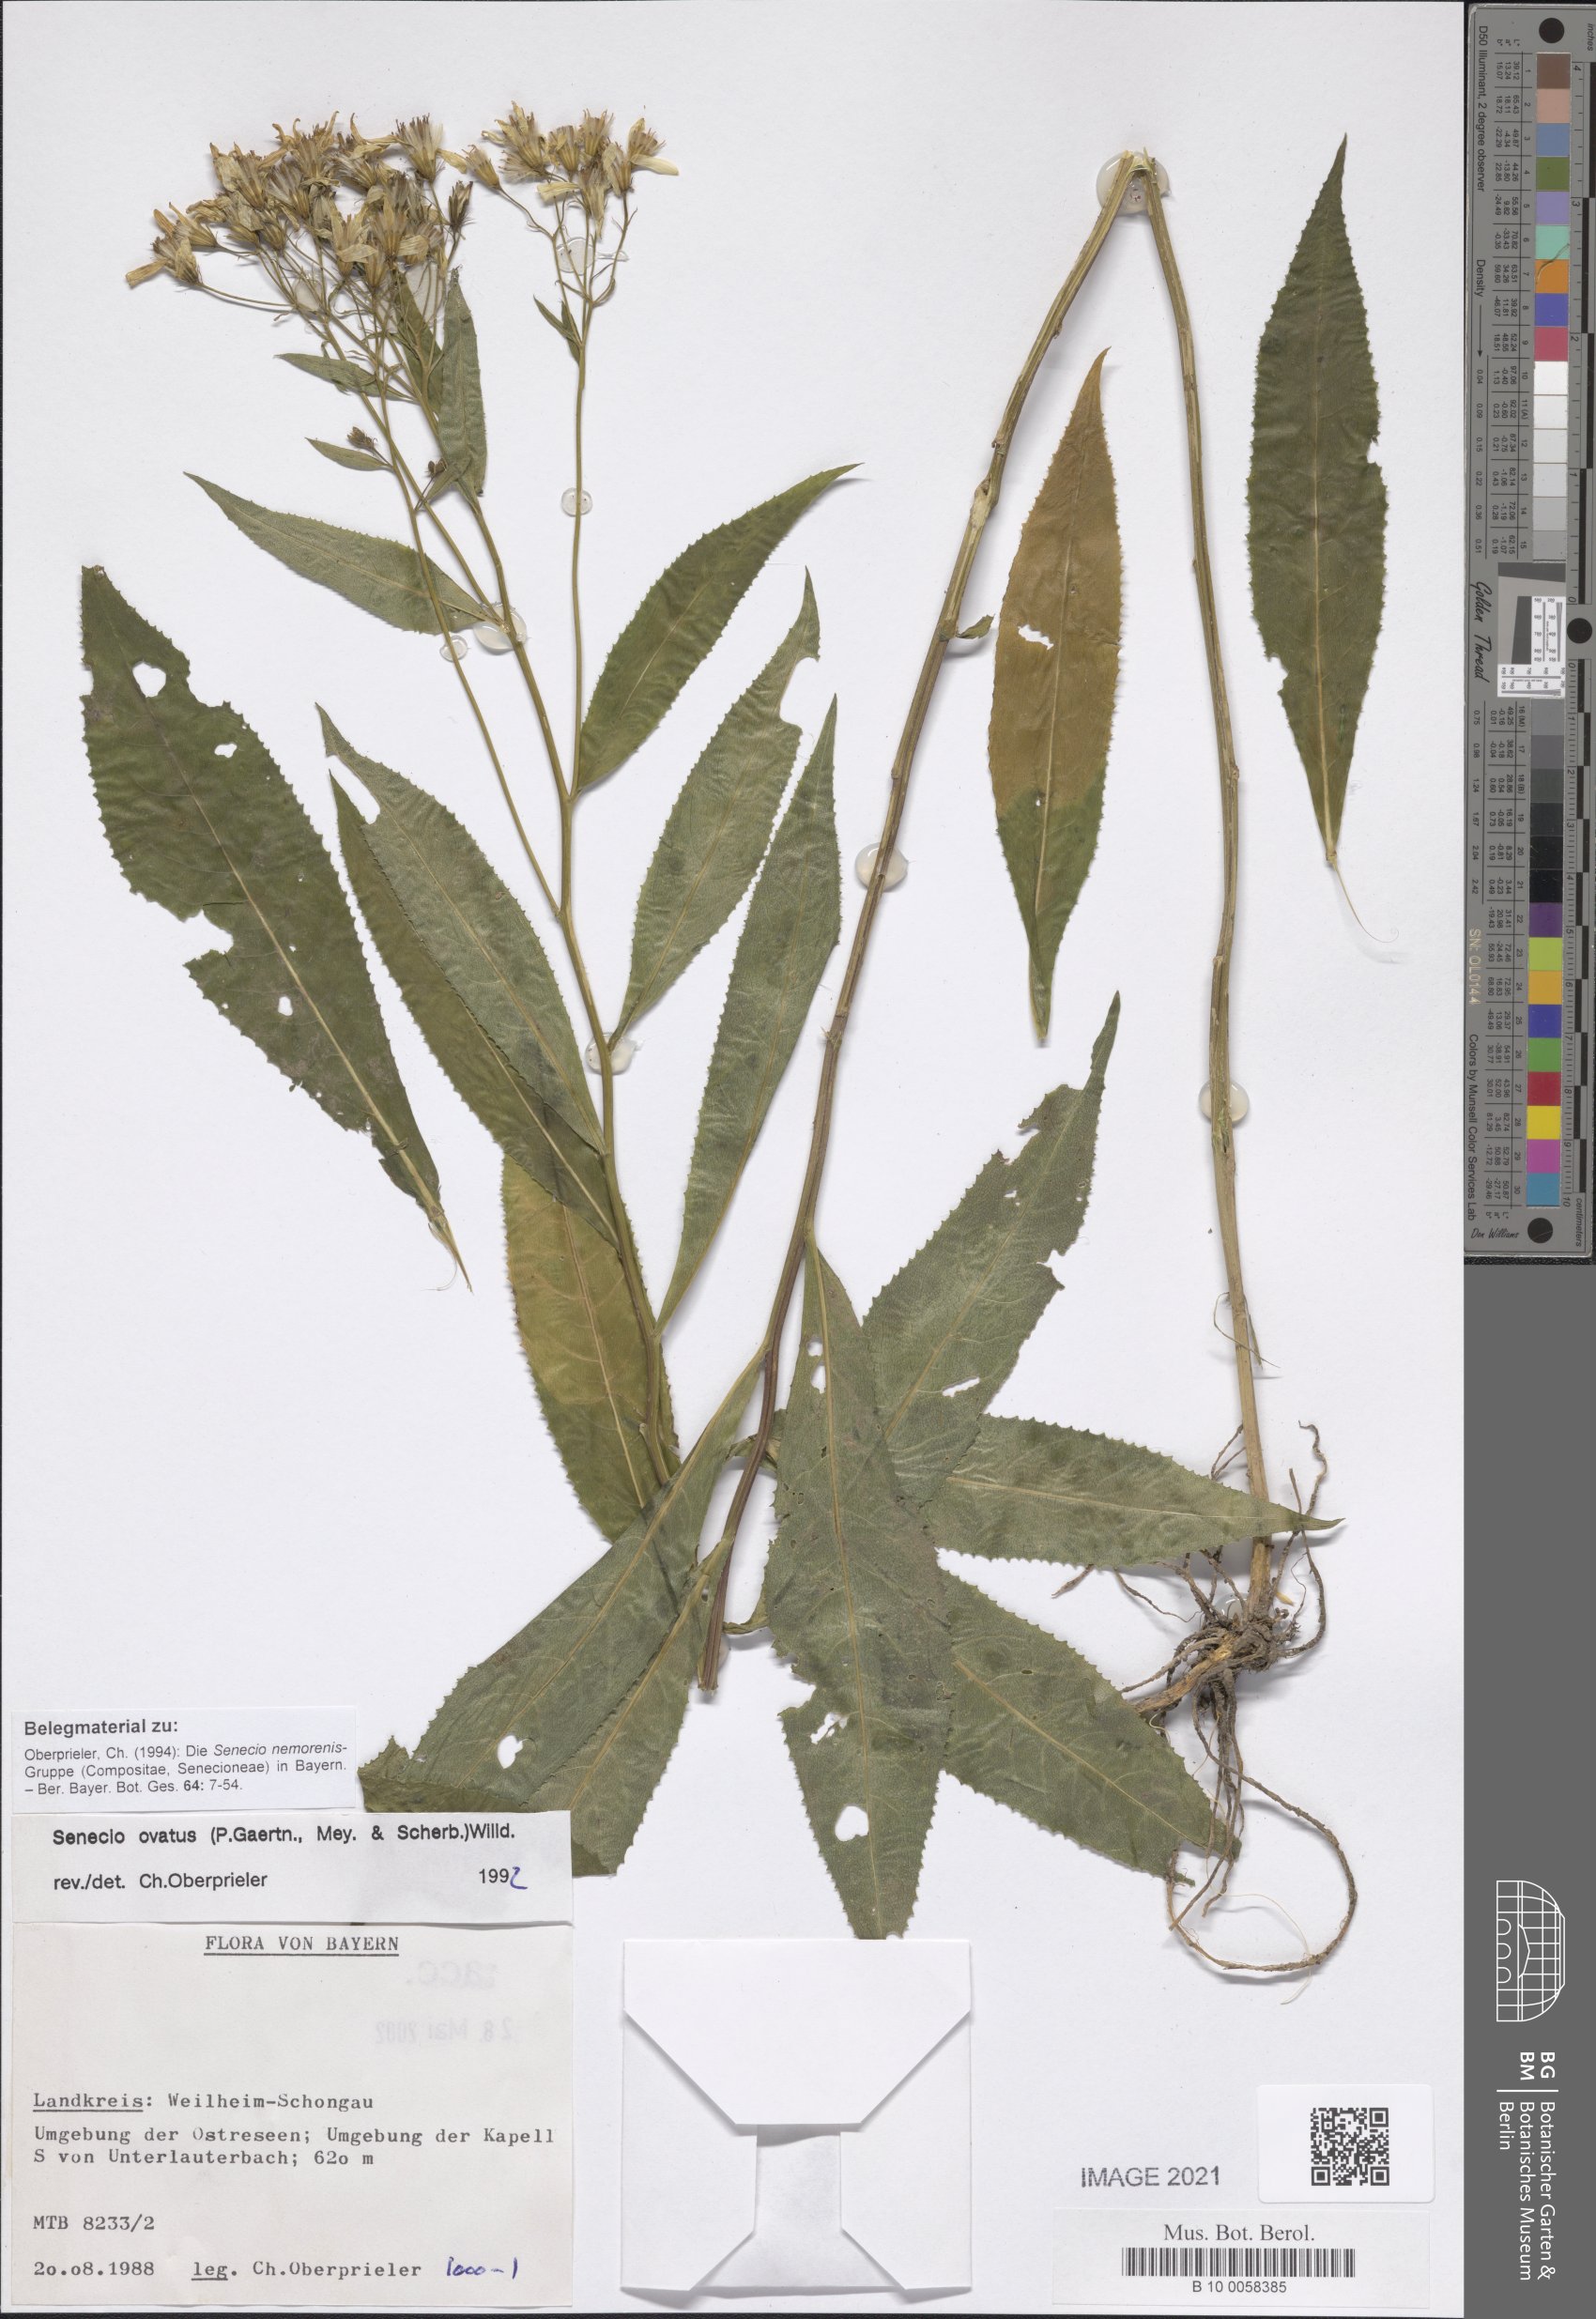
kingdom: Plantae
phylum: Tracheophyta
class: Magnoliopsida
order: Asterales
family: Asteraceae
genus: Senecio
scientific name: Senecio ovatus
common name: Wood ragwort
